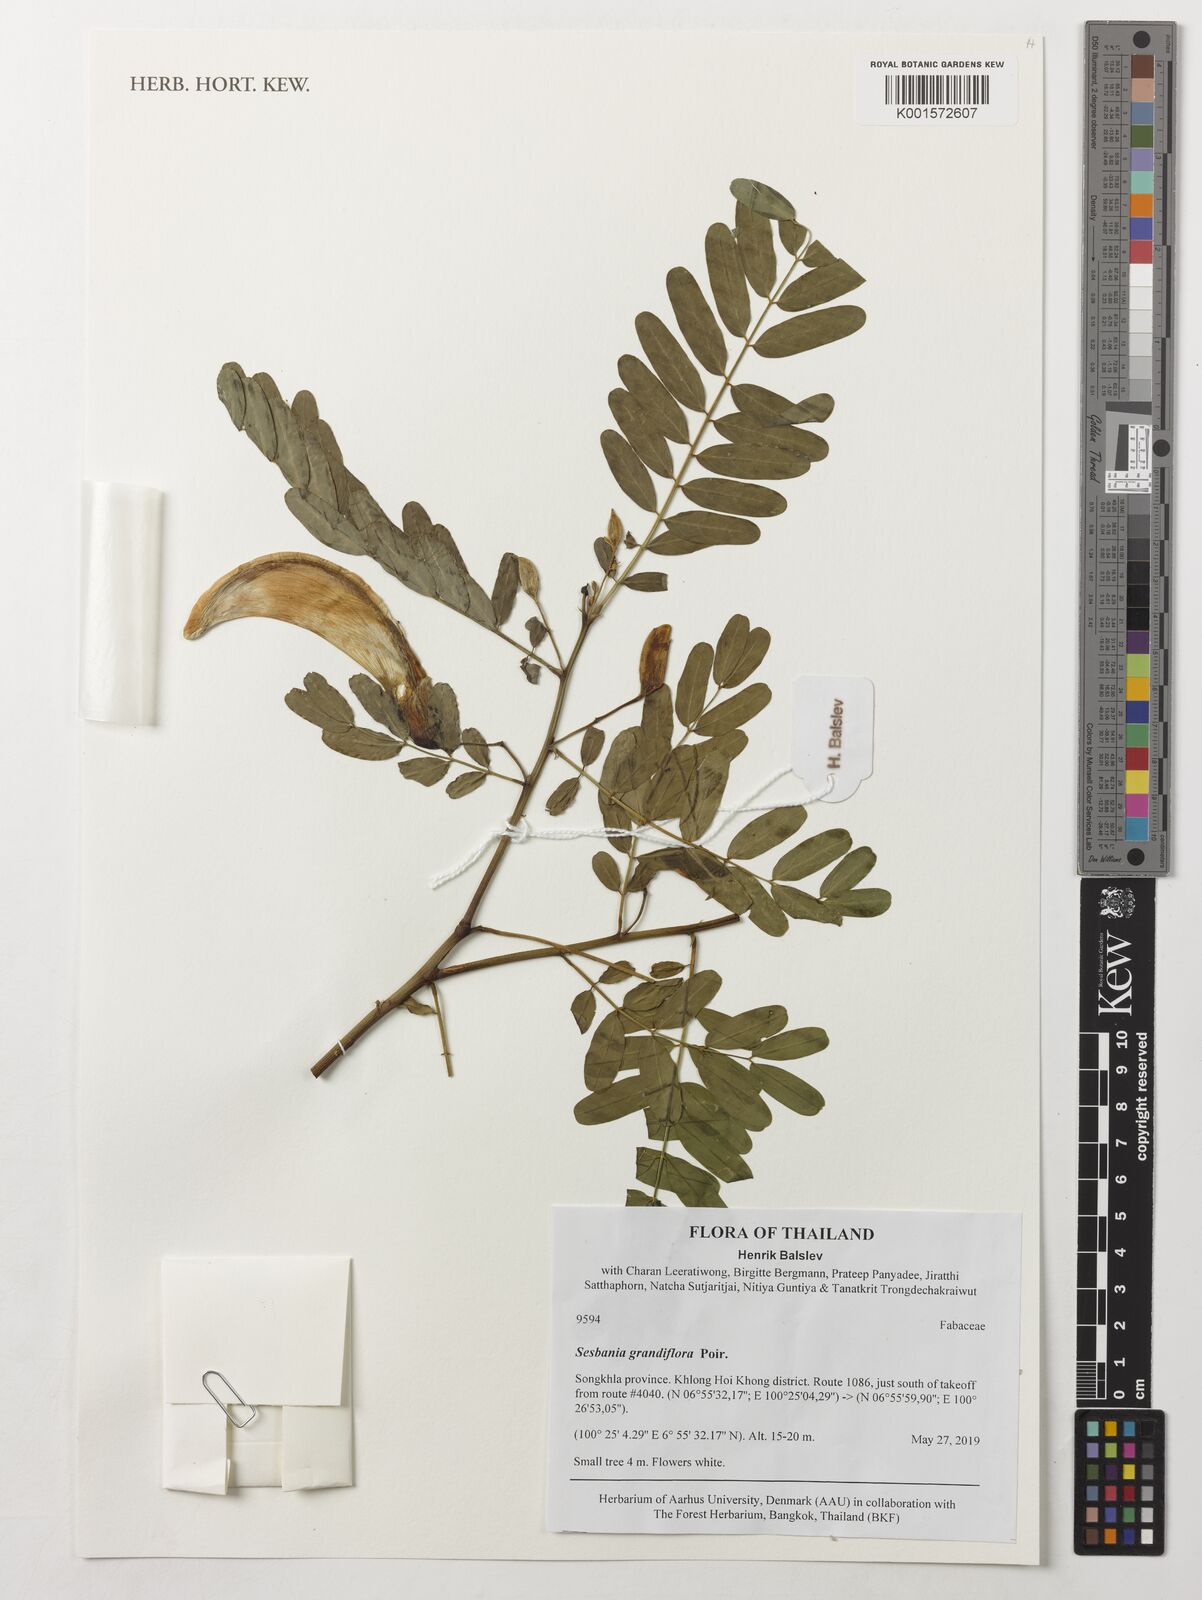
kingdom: Plantae
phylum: Tracheophyta
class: Magnoliopsida
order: Fabales
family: Fabaceae
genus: Sesbania
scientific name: Sesbania grandiflora
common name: Vegetable-hummingbird
